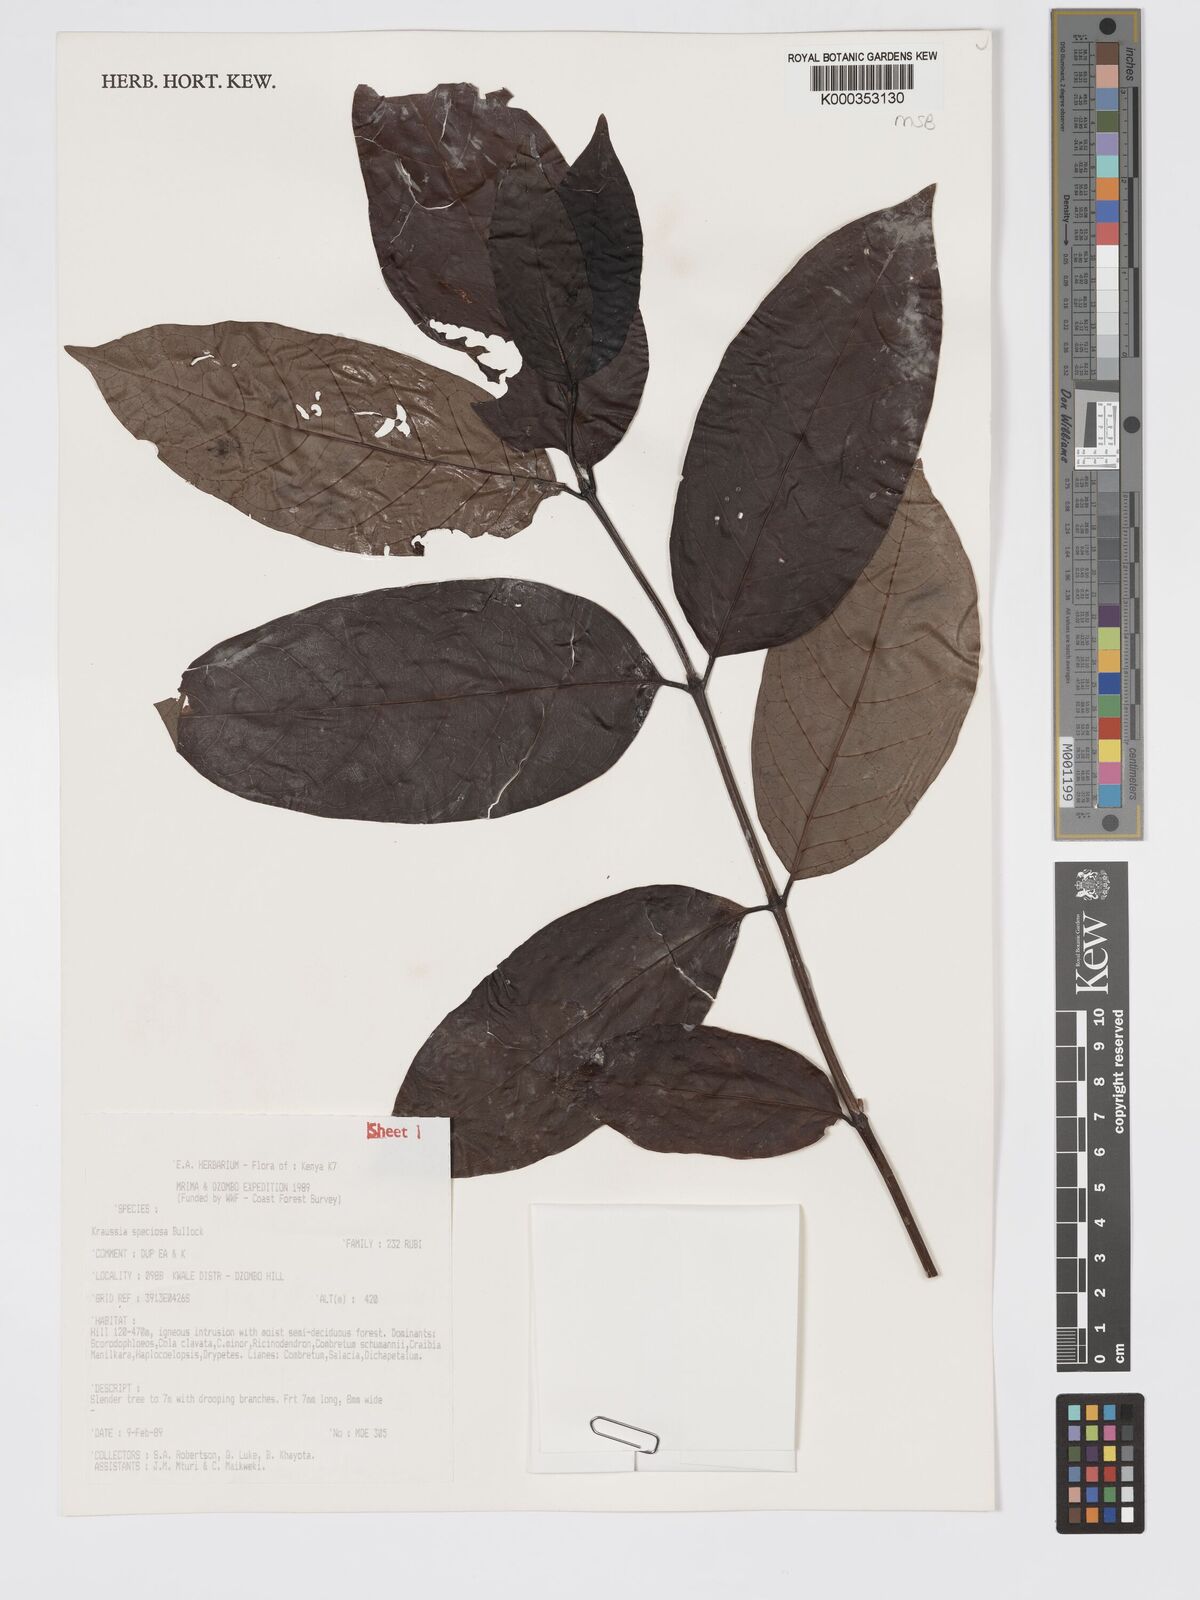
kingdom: Plantae
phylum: Tracheophyta
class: Magnoliopsida
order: Gentianales
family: Rubiaceae
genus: Kraussia
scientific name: Kraussia speciosa
